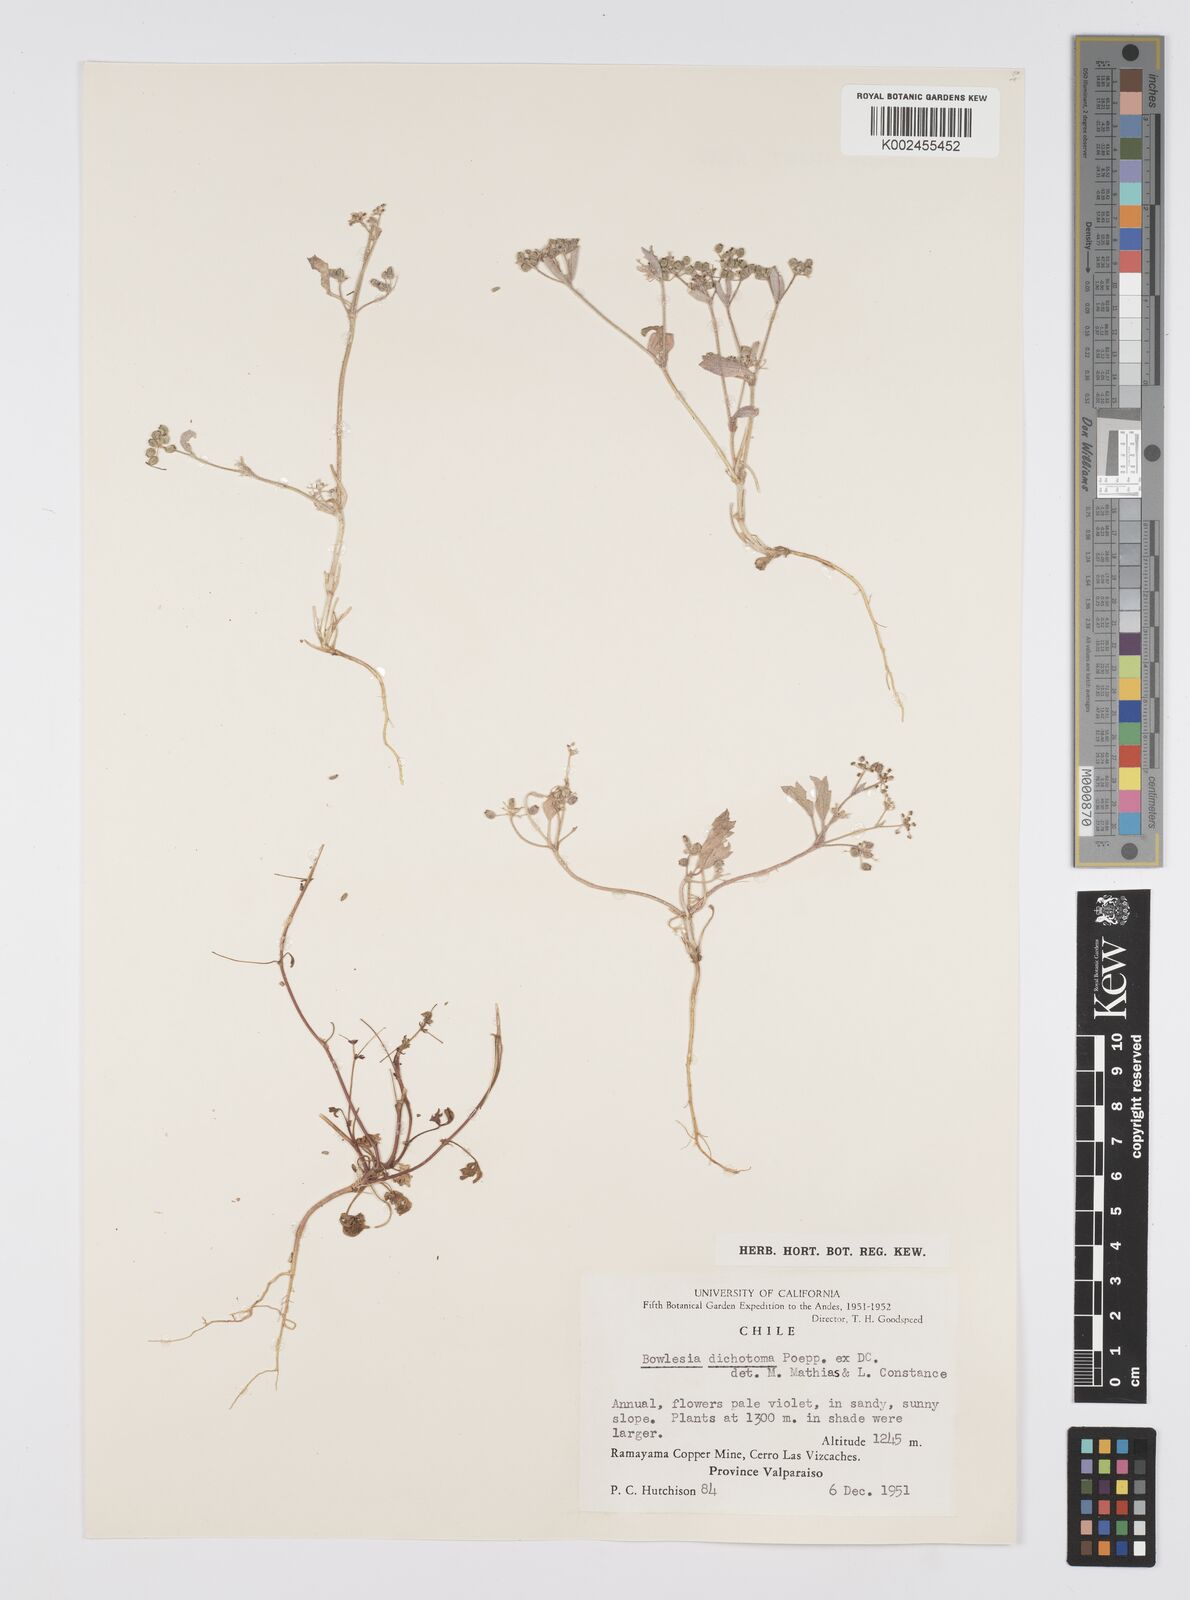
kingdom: Plantae
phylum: Tracheophyta
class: Magnoliopsida
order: Apiales
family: Apiaceae
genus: Homalocarpus
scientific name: Homalocarpus dichotomus
